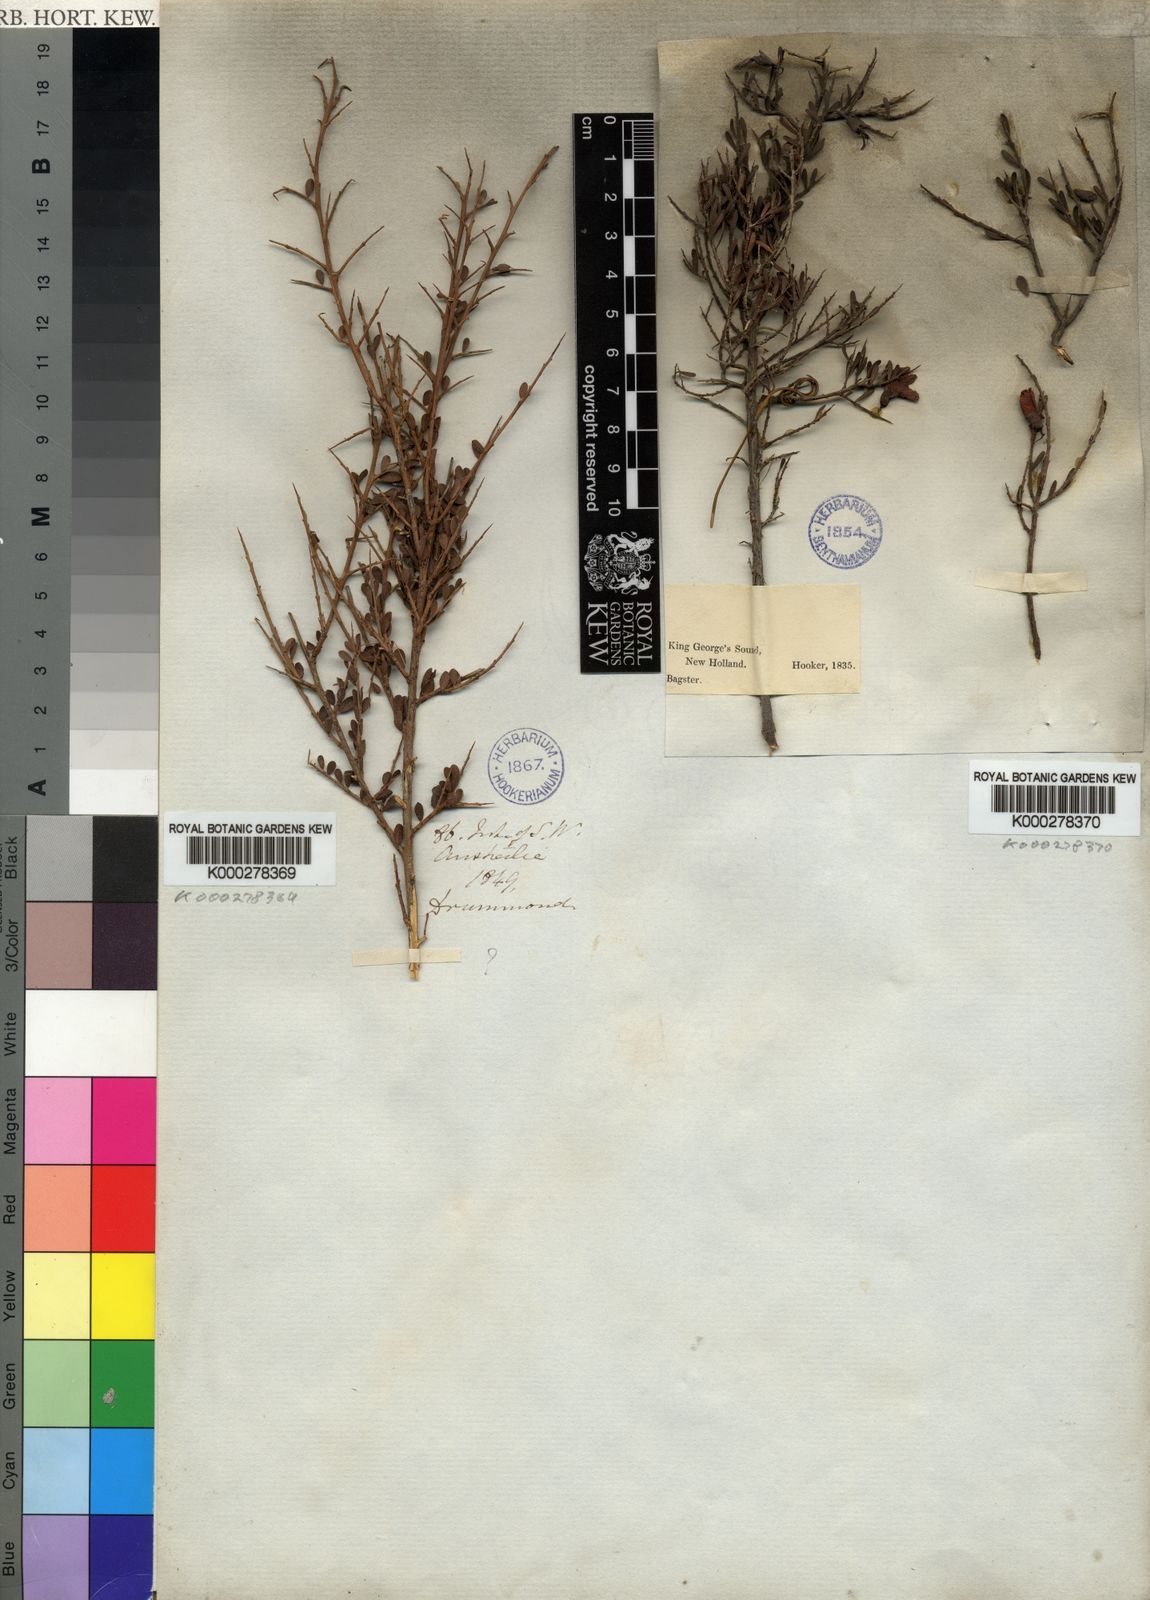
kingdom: Plantae
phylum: Tracheophyta
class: Magnoliopsida
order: Fabales
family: Fabaceae
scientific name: Fabaceae
